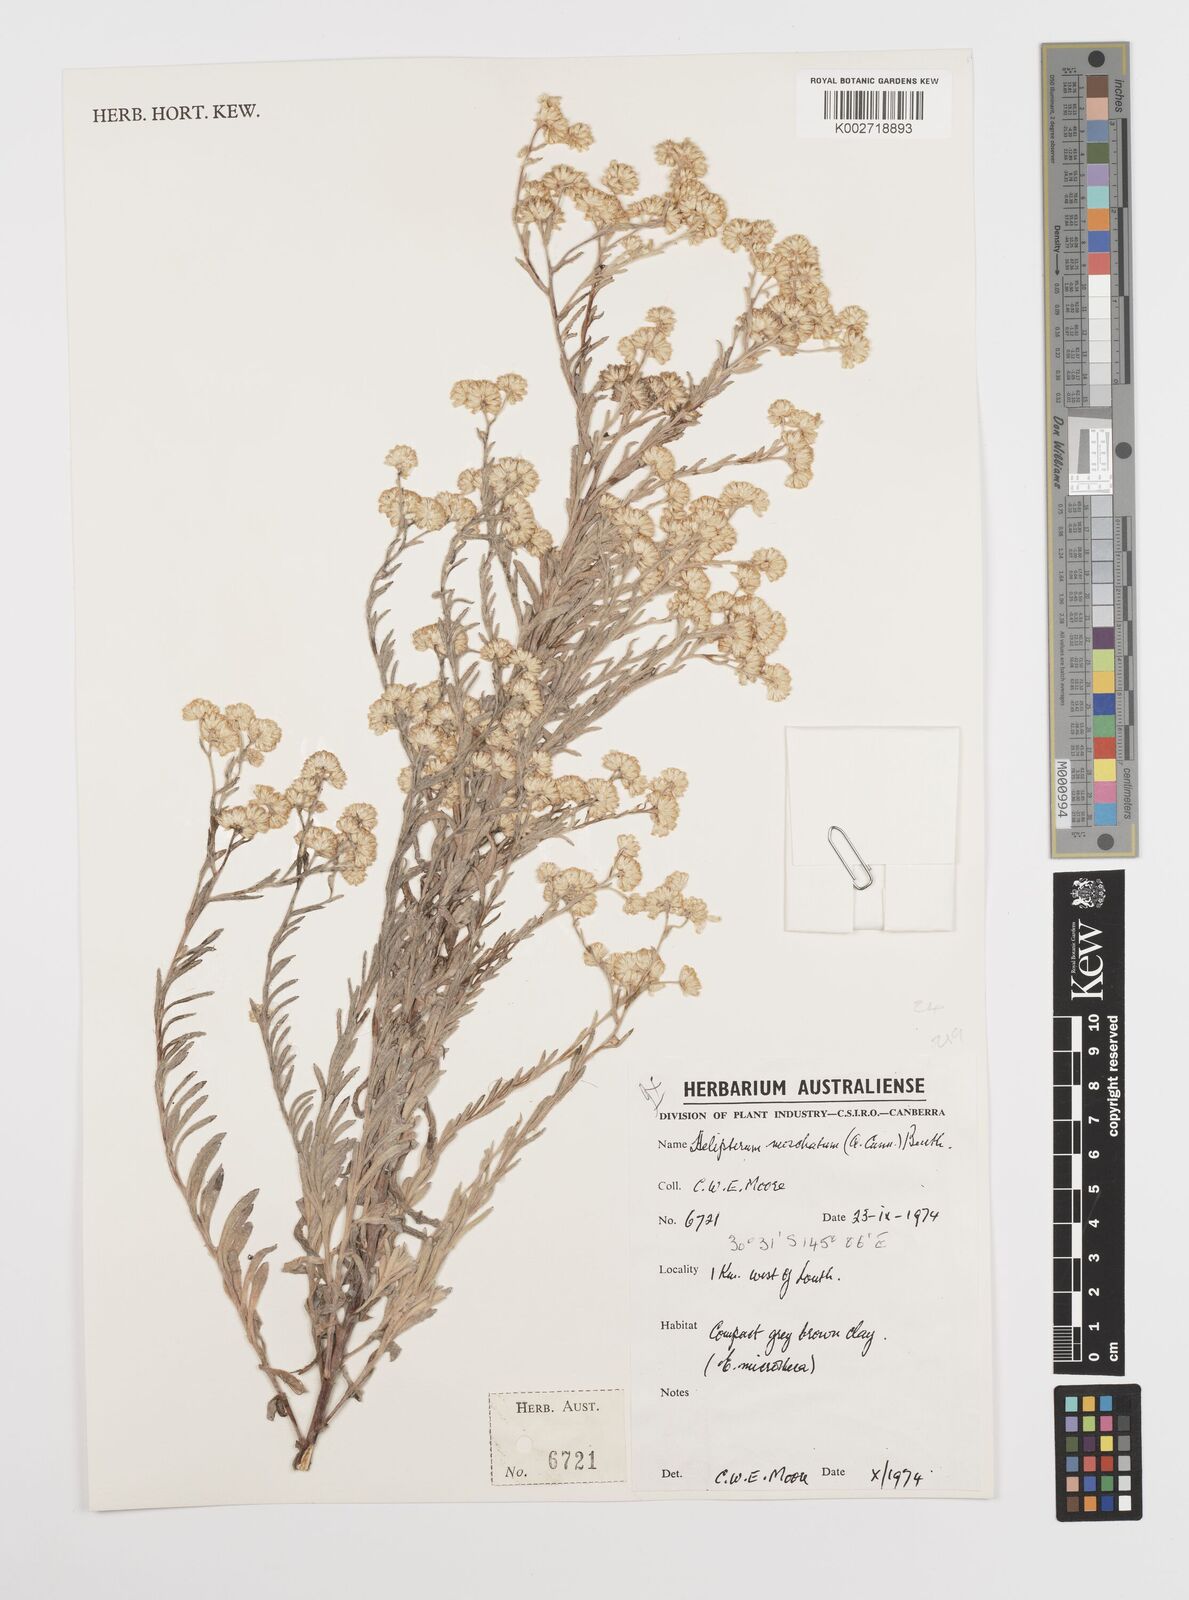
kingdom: Plantae
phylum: Tracheophyta
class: Magnoliopsida
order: Asterales
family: Asteraceae
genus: Rhodanthe
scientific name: Rhodanthe moschata
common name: Musk sunray
